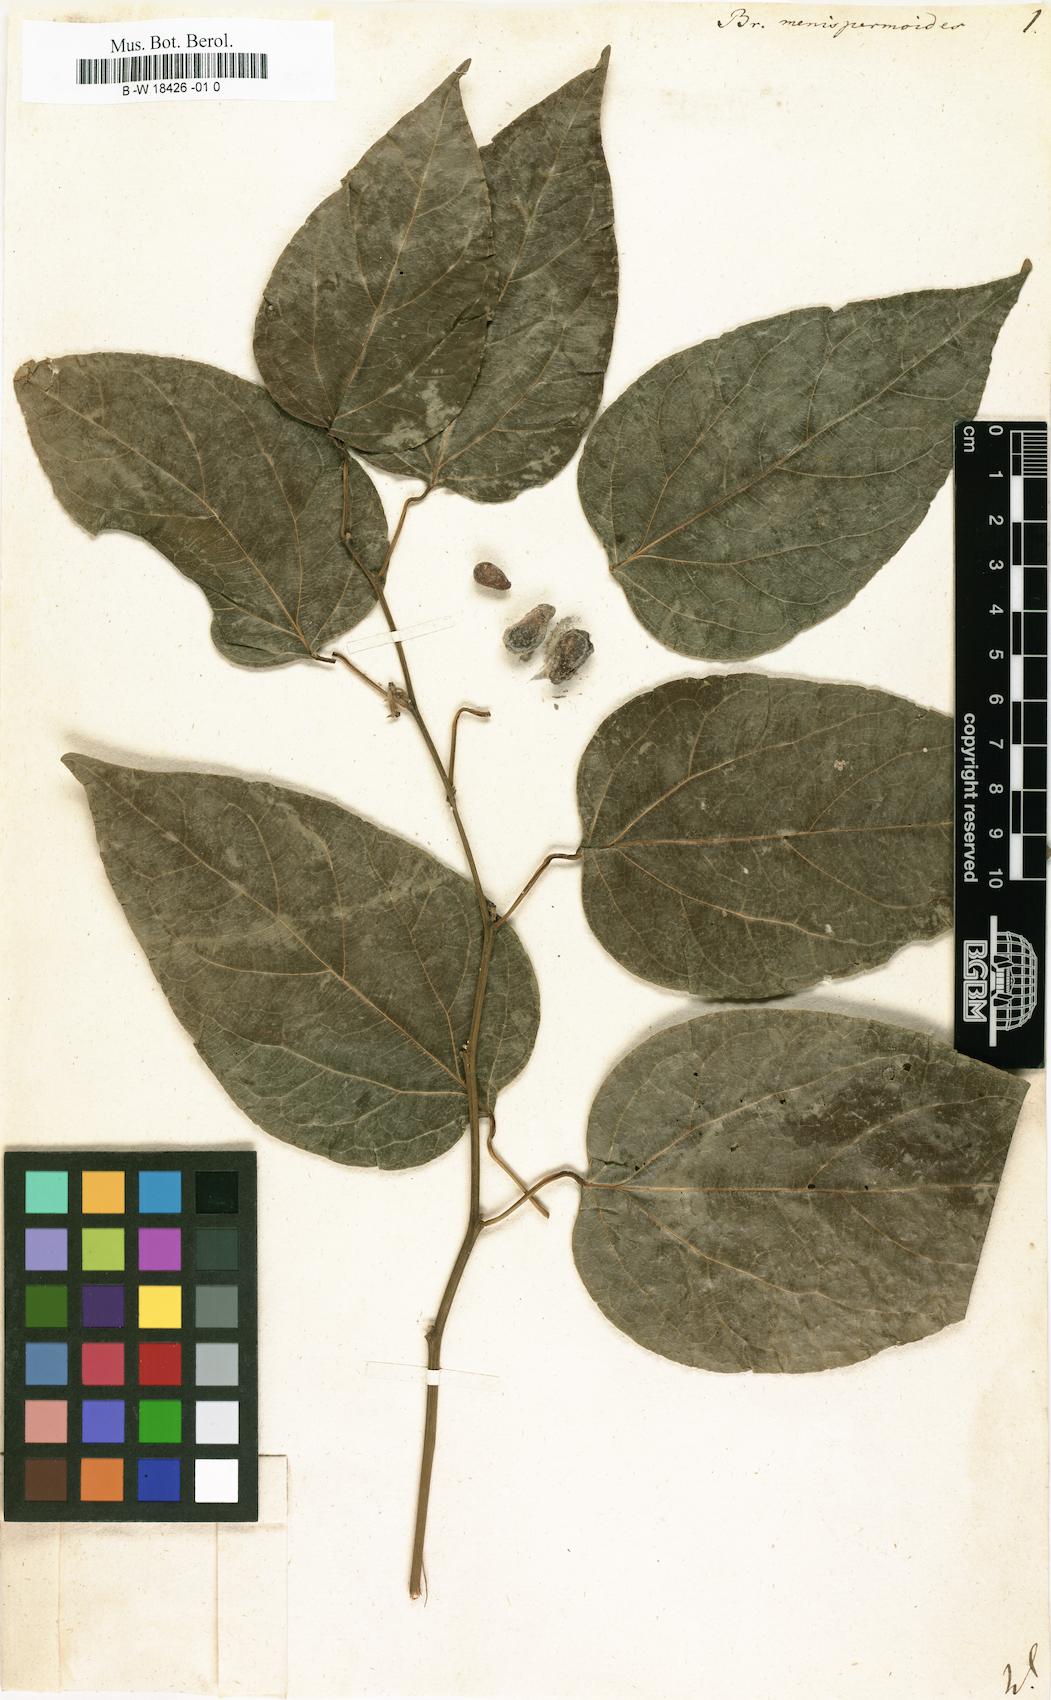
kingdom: Plantae
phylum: Tracheophyta
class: Magnoliopsida
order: Ranunculales
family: Menispermaceae
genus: Tiliacora
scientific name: Tiliacora acuminata
